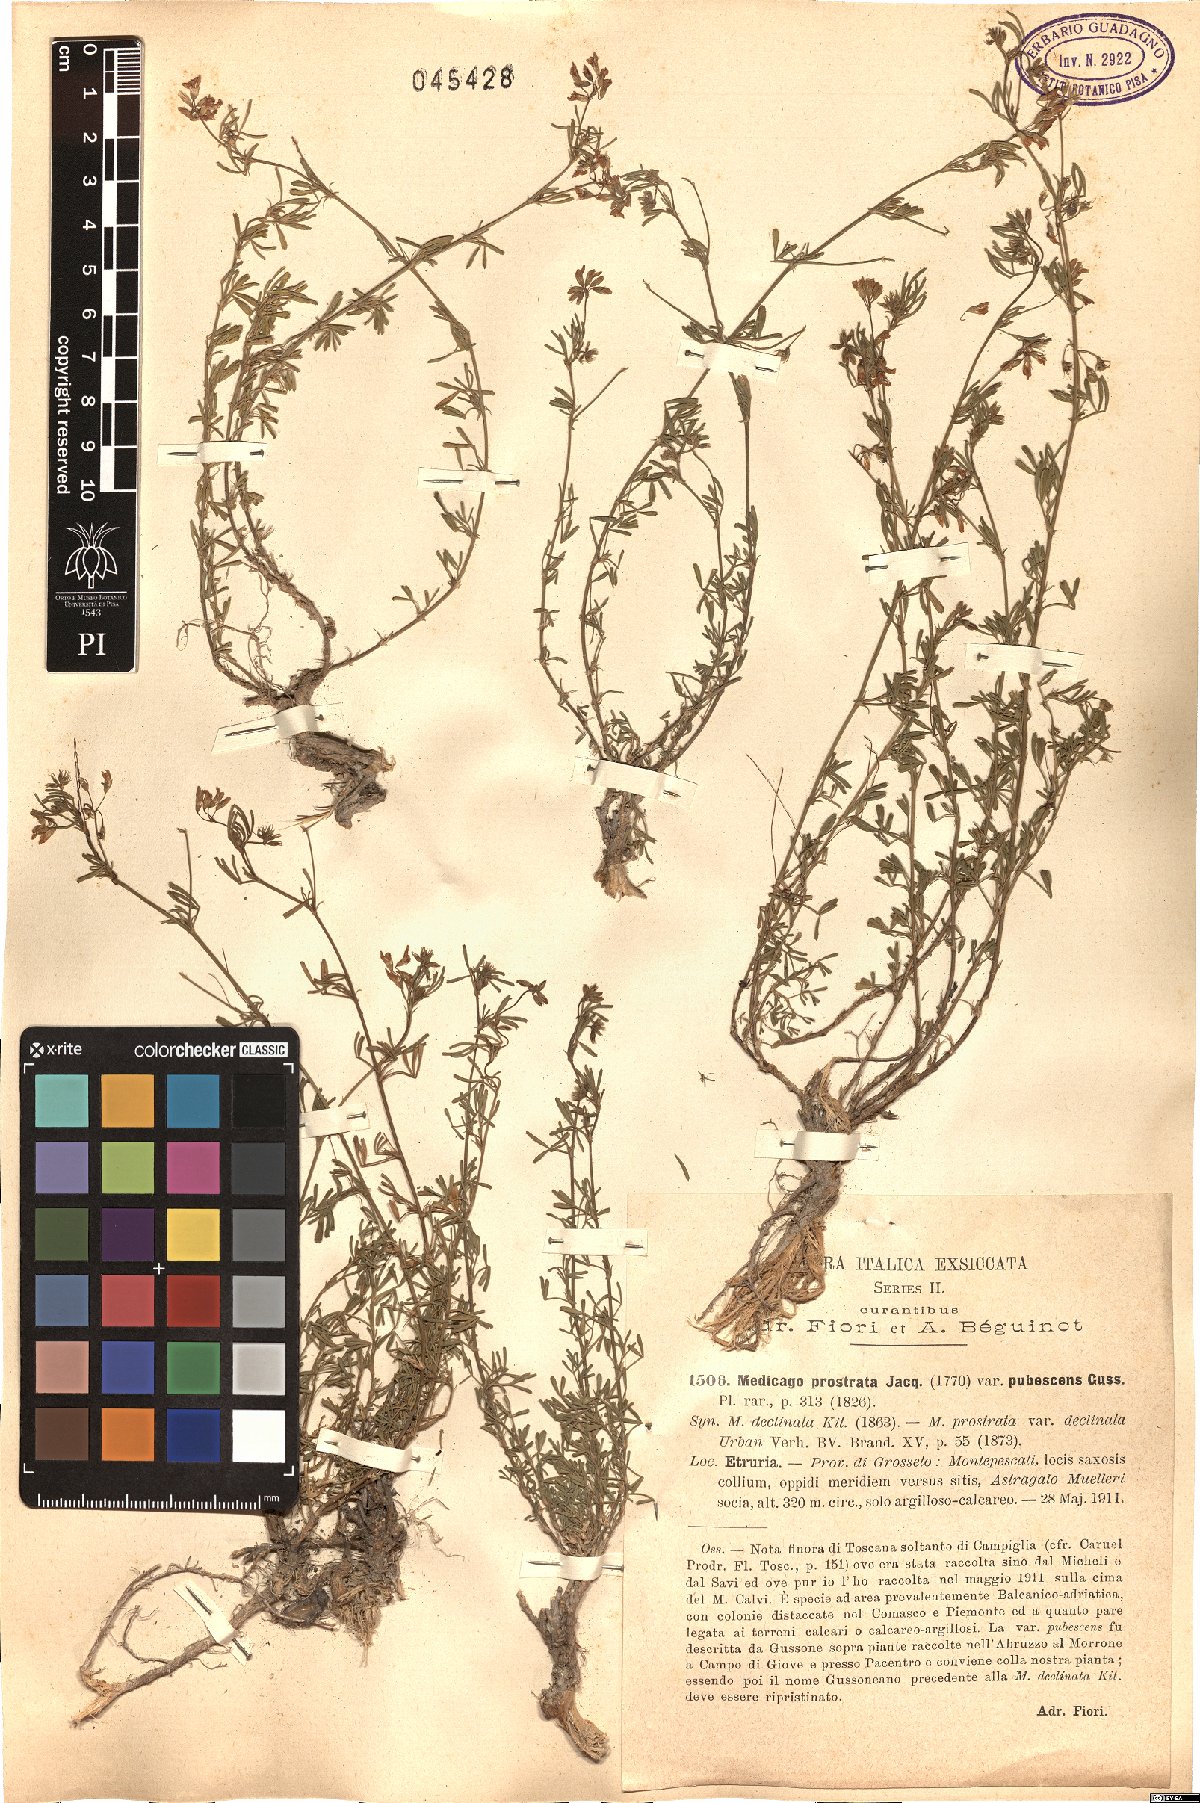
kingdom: Plantae
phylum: Tracheophyta
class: Magnoliopsida
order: Fabales
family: Fabaceae
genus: Medicago
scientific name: Medicago prostrata
